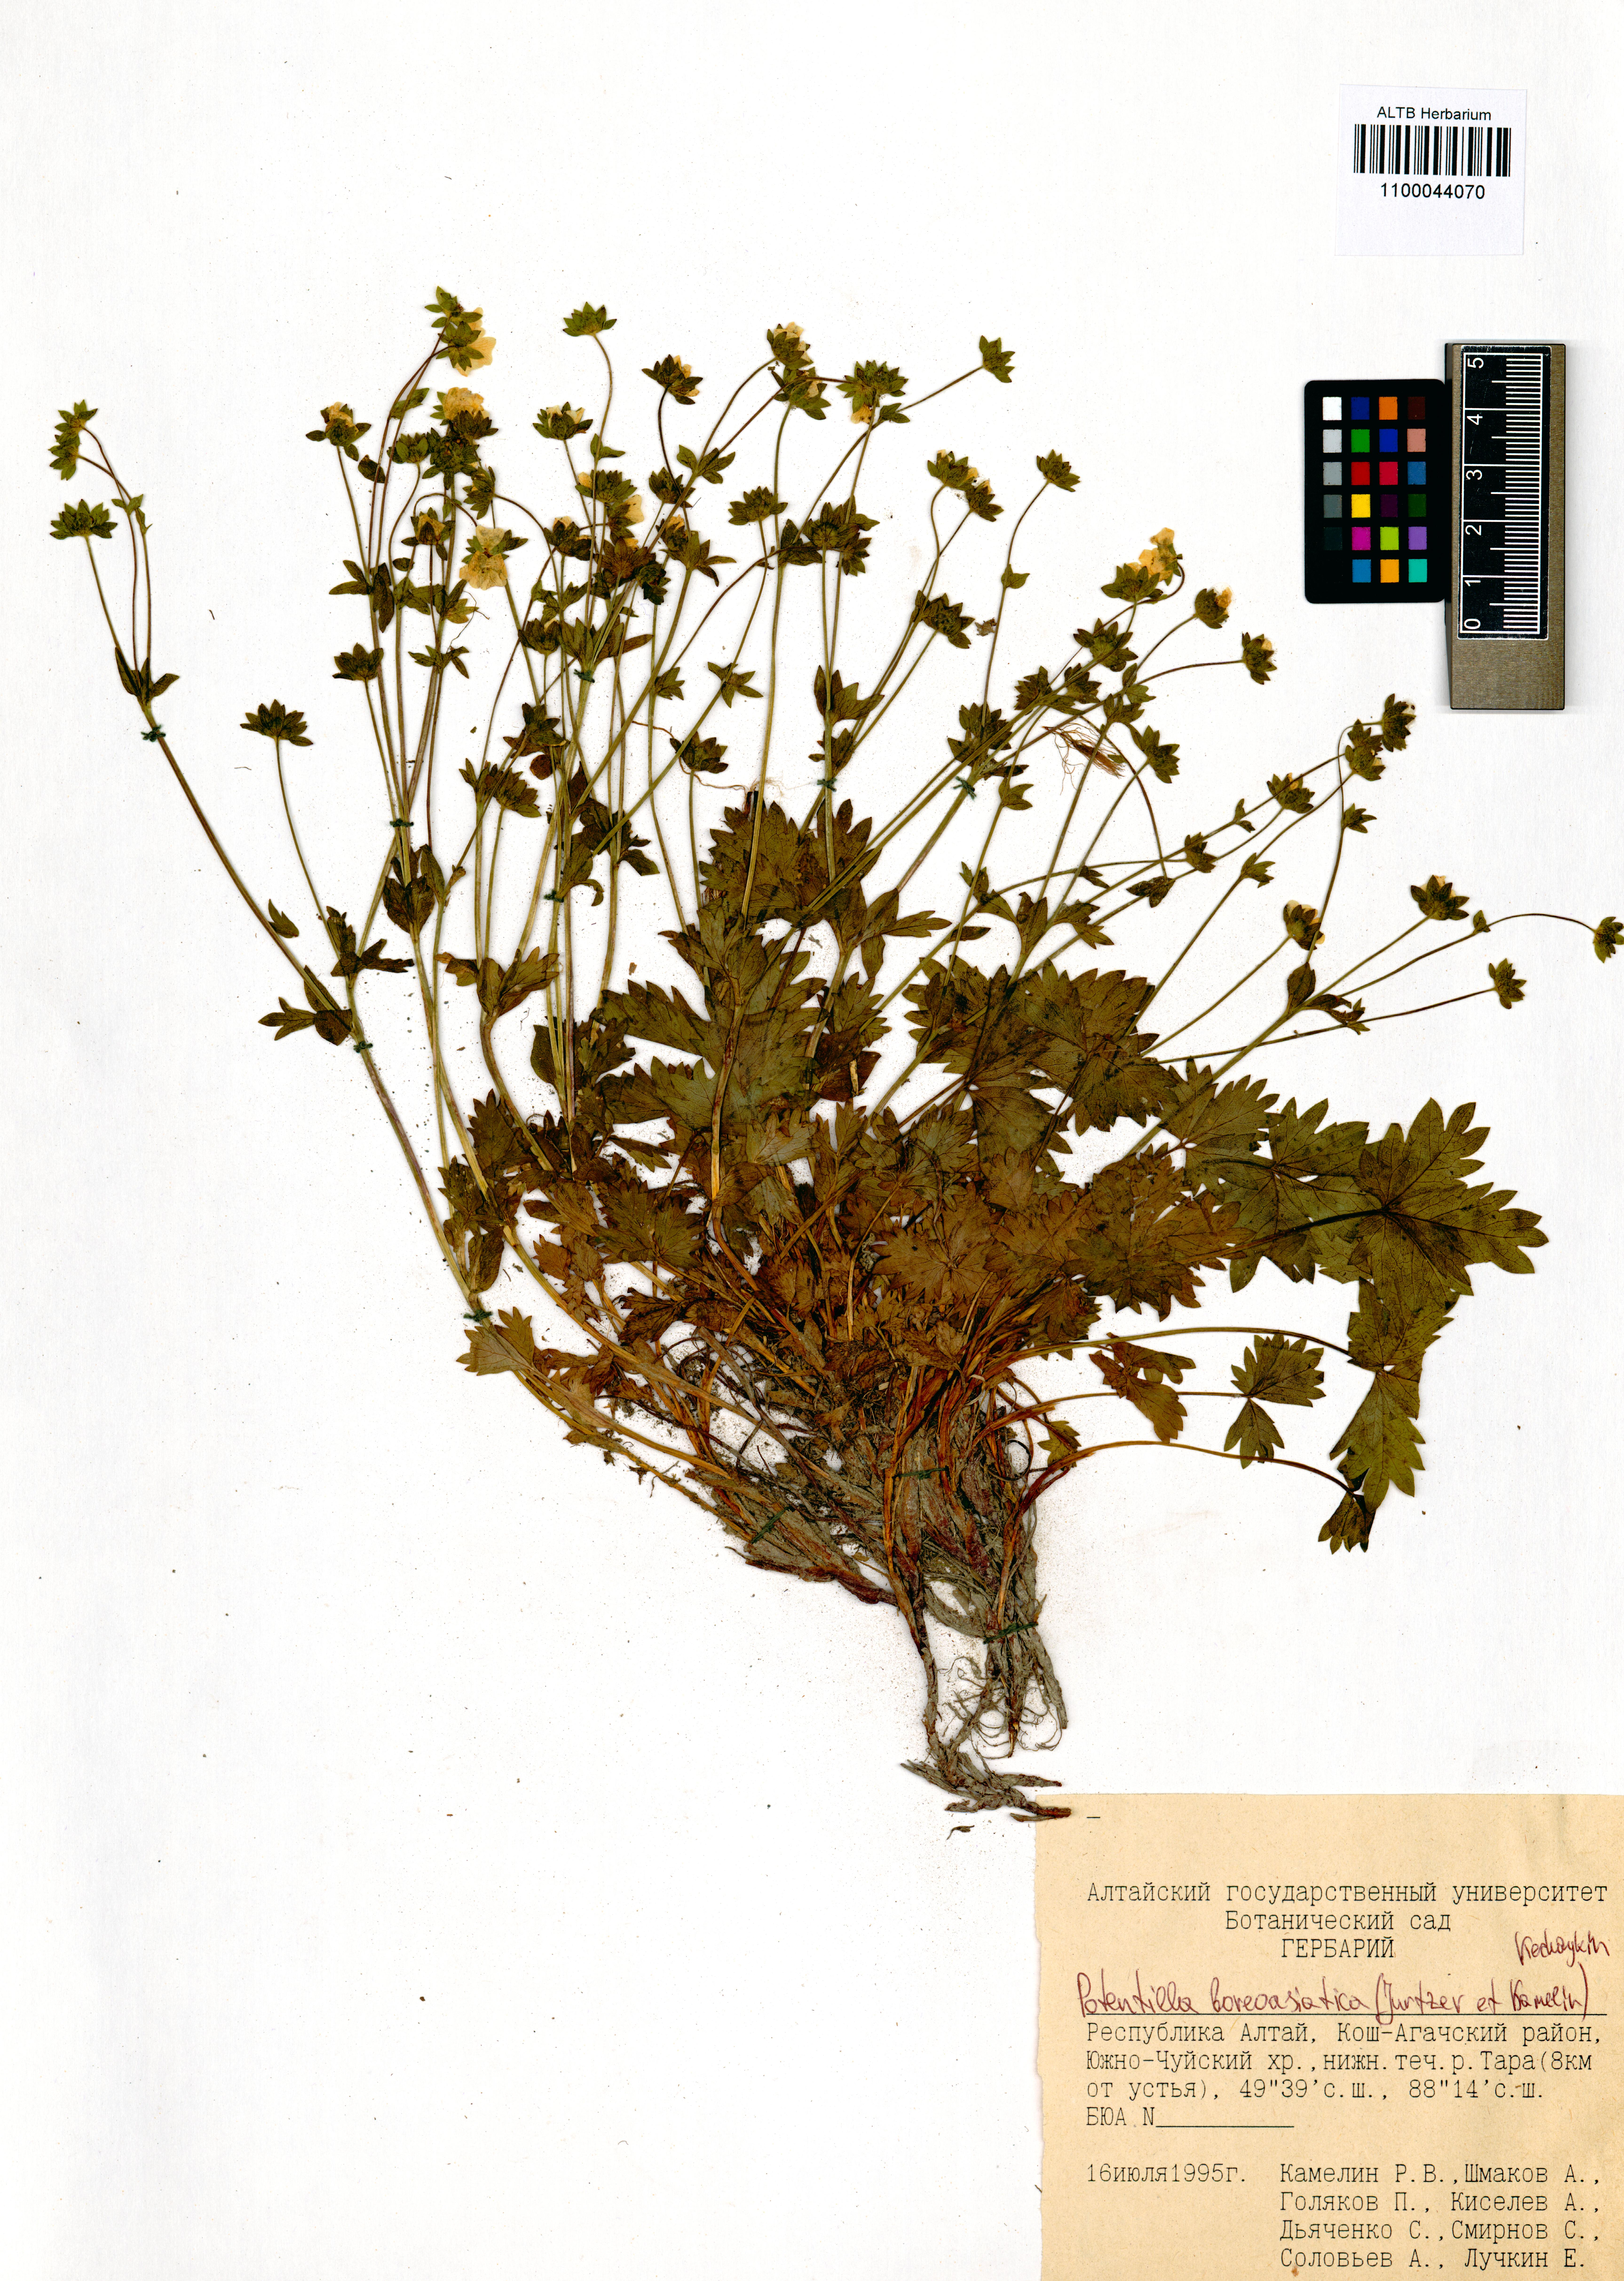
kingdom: Plantae
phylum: Tracheophyta
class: Magnoliopsida
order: Rosales
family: Rosaceae
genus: Potentilla
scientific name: Potentilla
